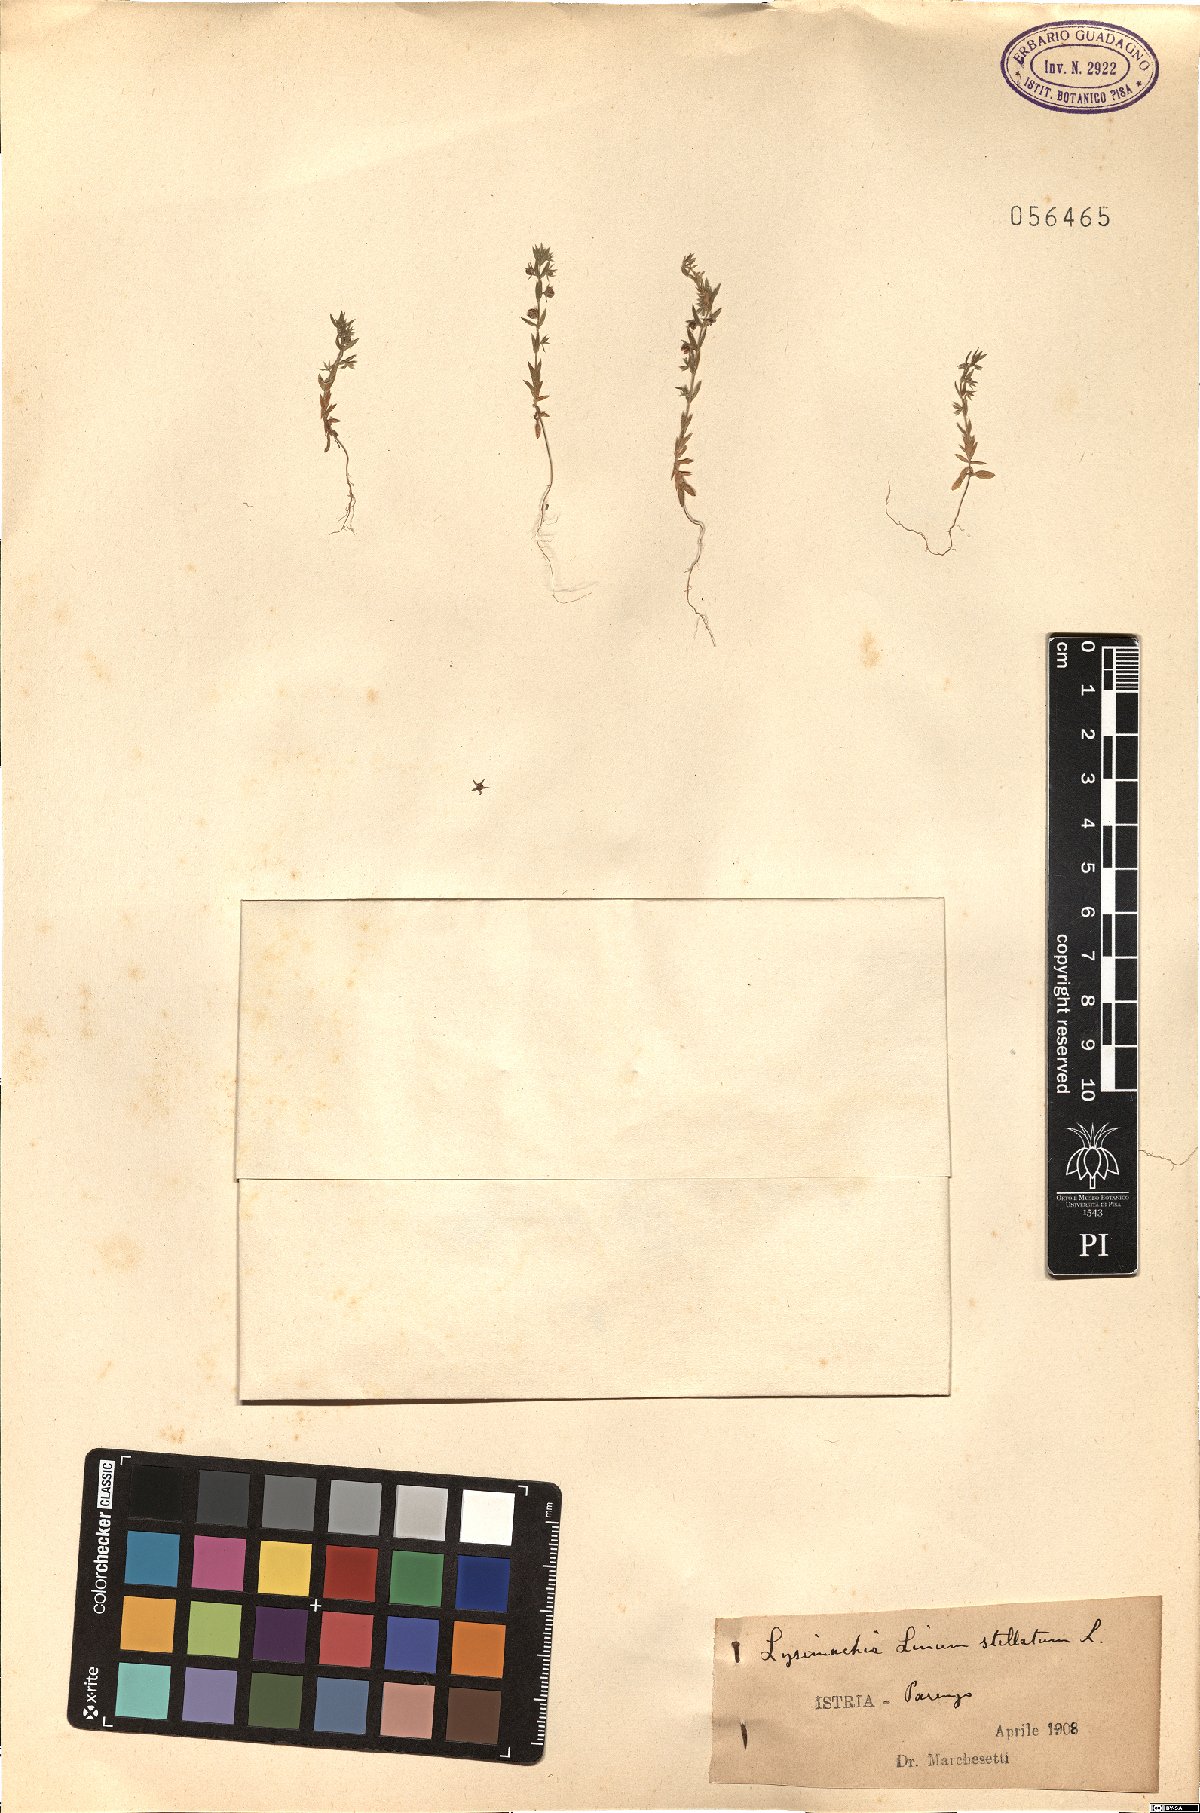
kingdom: Plantae
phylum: Tracheophyta
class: Magnoliopsida
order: Ericales
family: Primulaceae
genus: Lysimachia
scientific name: Lysimachia linum-stellatum
